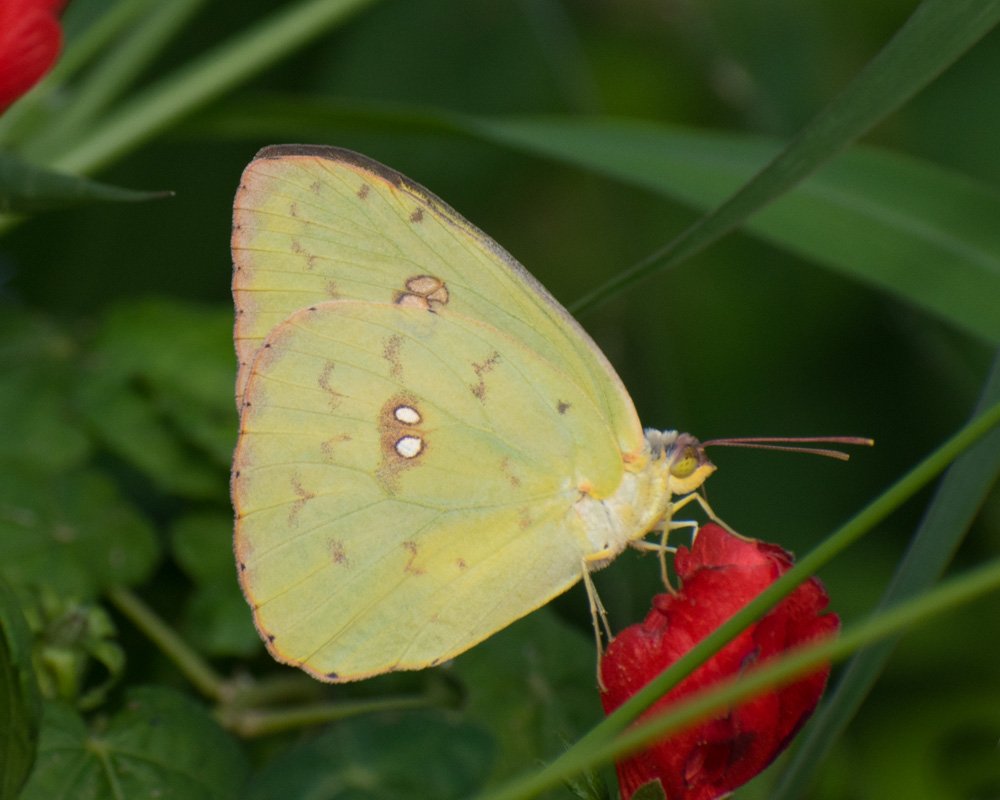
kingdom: Animalia
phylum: Arthropoda
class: Insecta
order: Lepidoptera
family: Pieridae
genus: Phoebis
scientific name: Phoebis sennae
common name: Cloudless Sulphur
